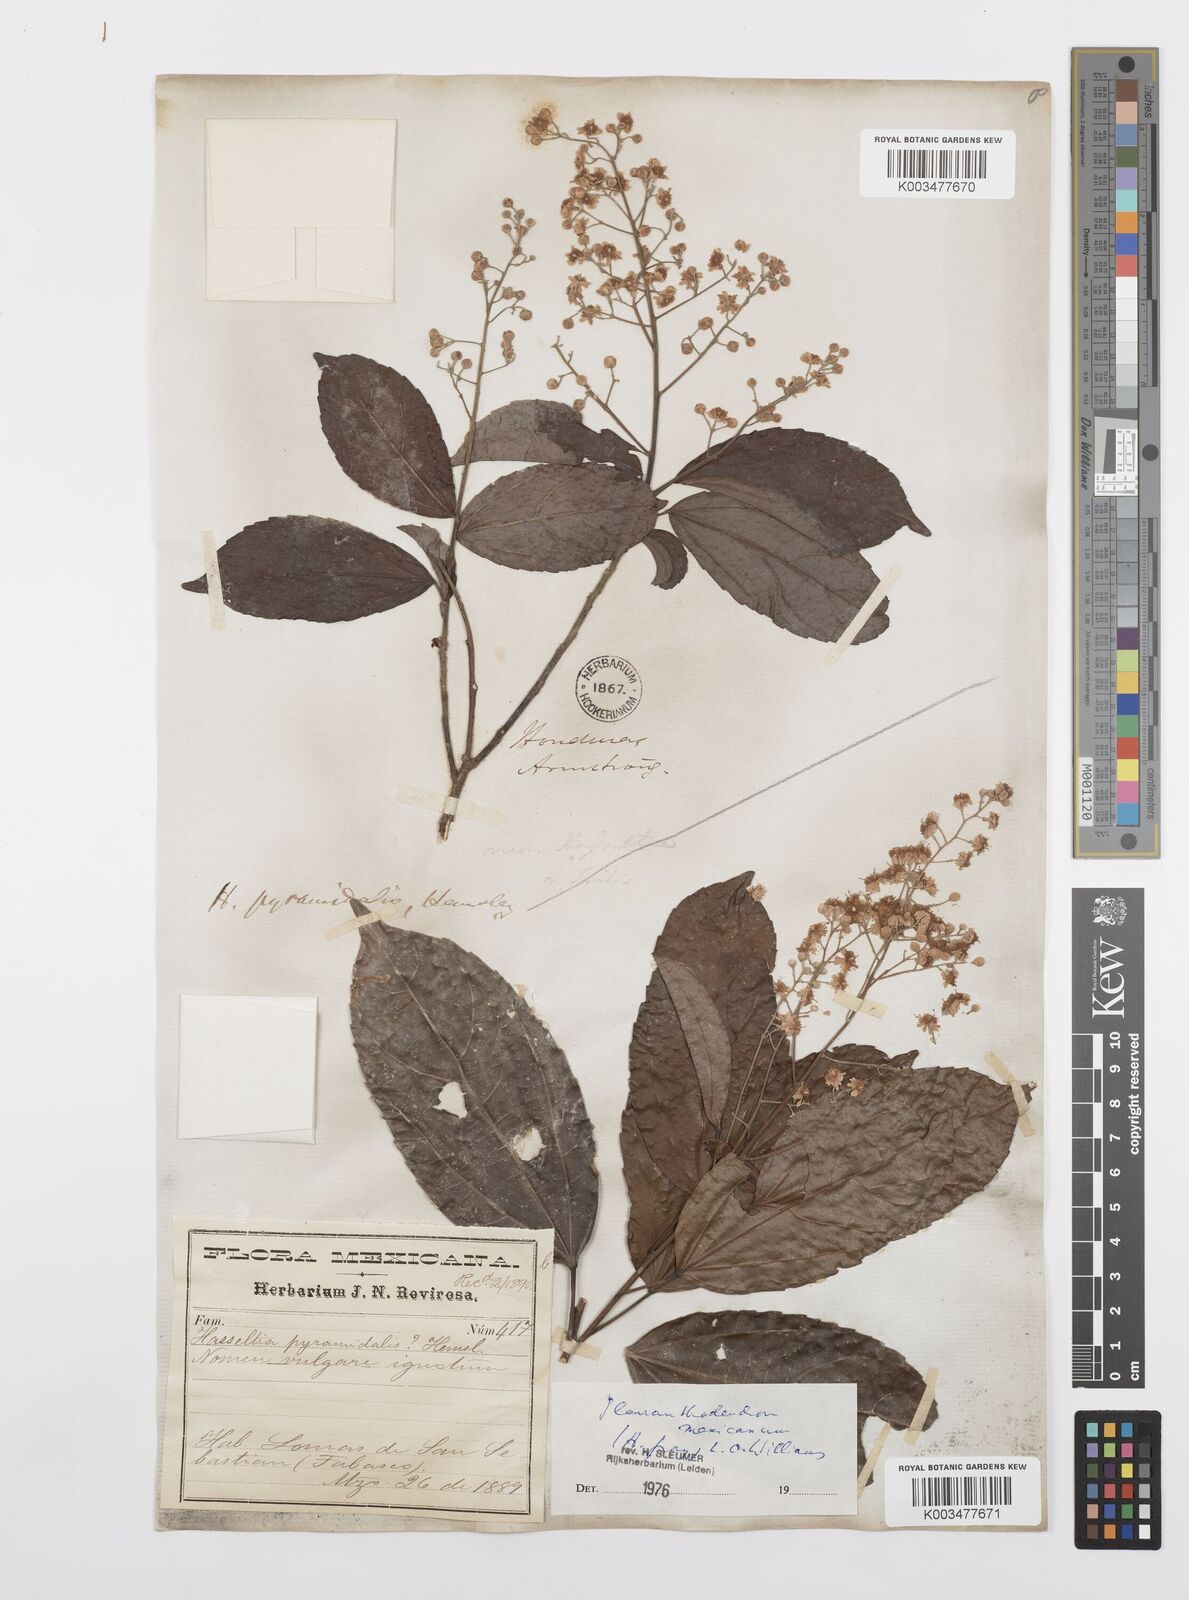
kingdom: Plantae
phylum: Tracheophyta
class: Magnoliopsida
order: Malpighiales
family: Salicaceae
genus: Pleuranthodendron
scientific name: Pleuranthodendron lindenii
